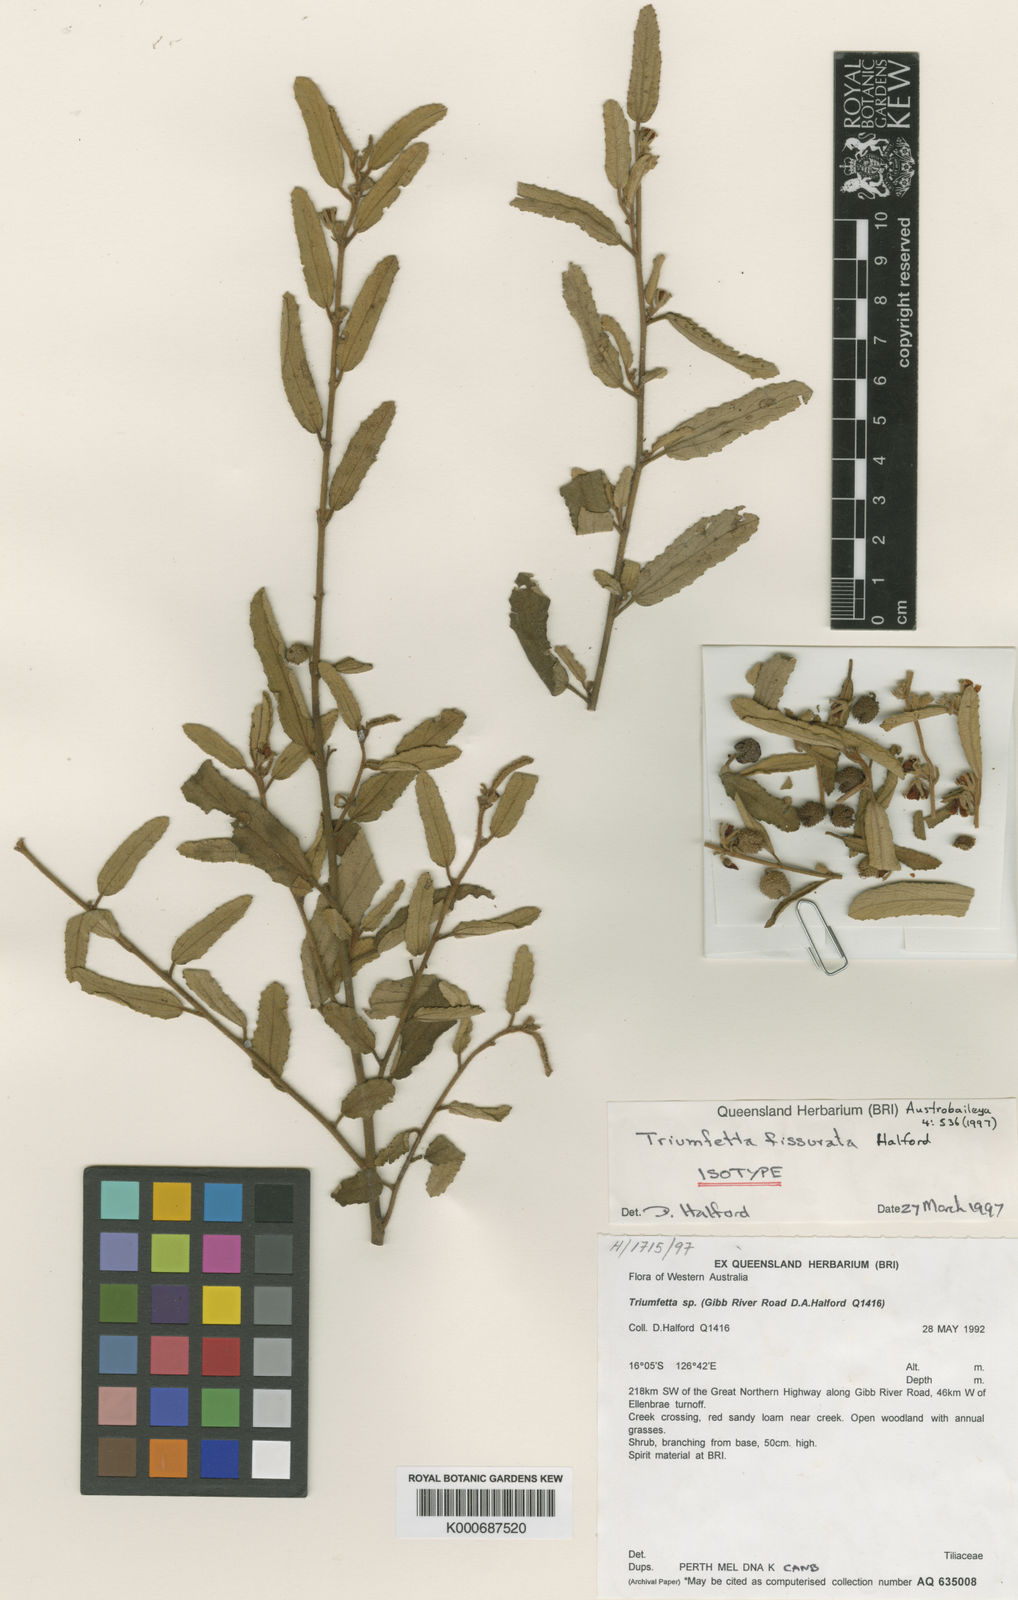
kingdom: Plantae
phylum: Tracheophyta
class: Magnoliopsida
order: Malvales
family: Malvaceae
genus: Triumfetta
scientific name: Triumfetta fissurata
